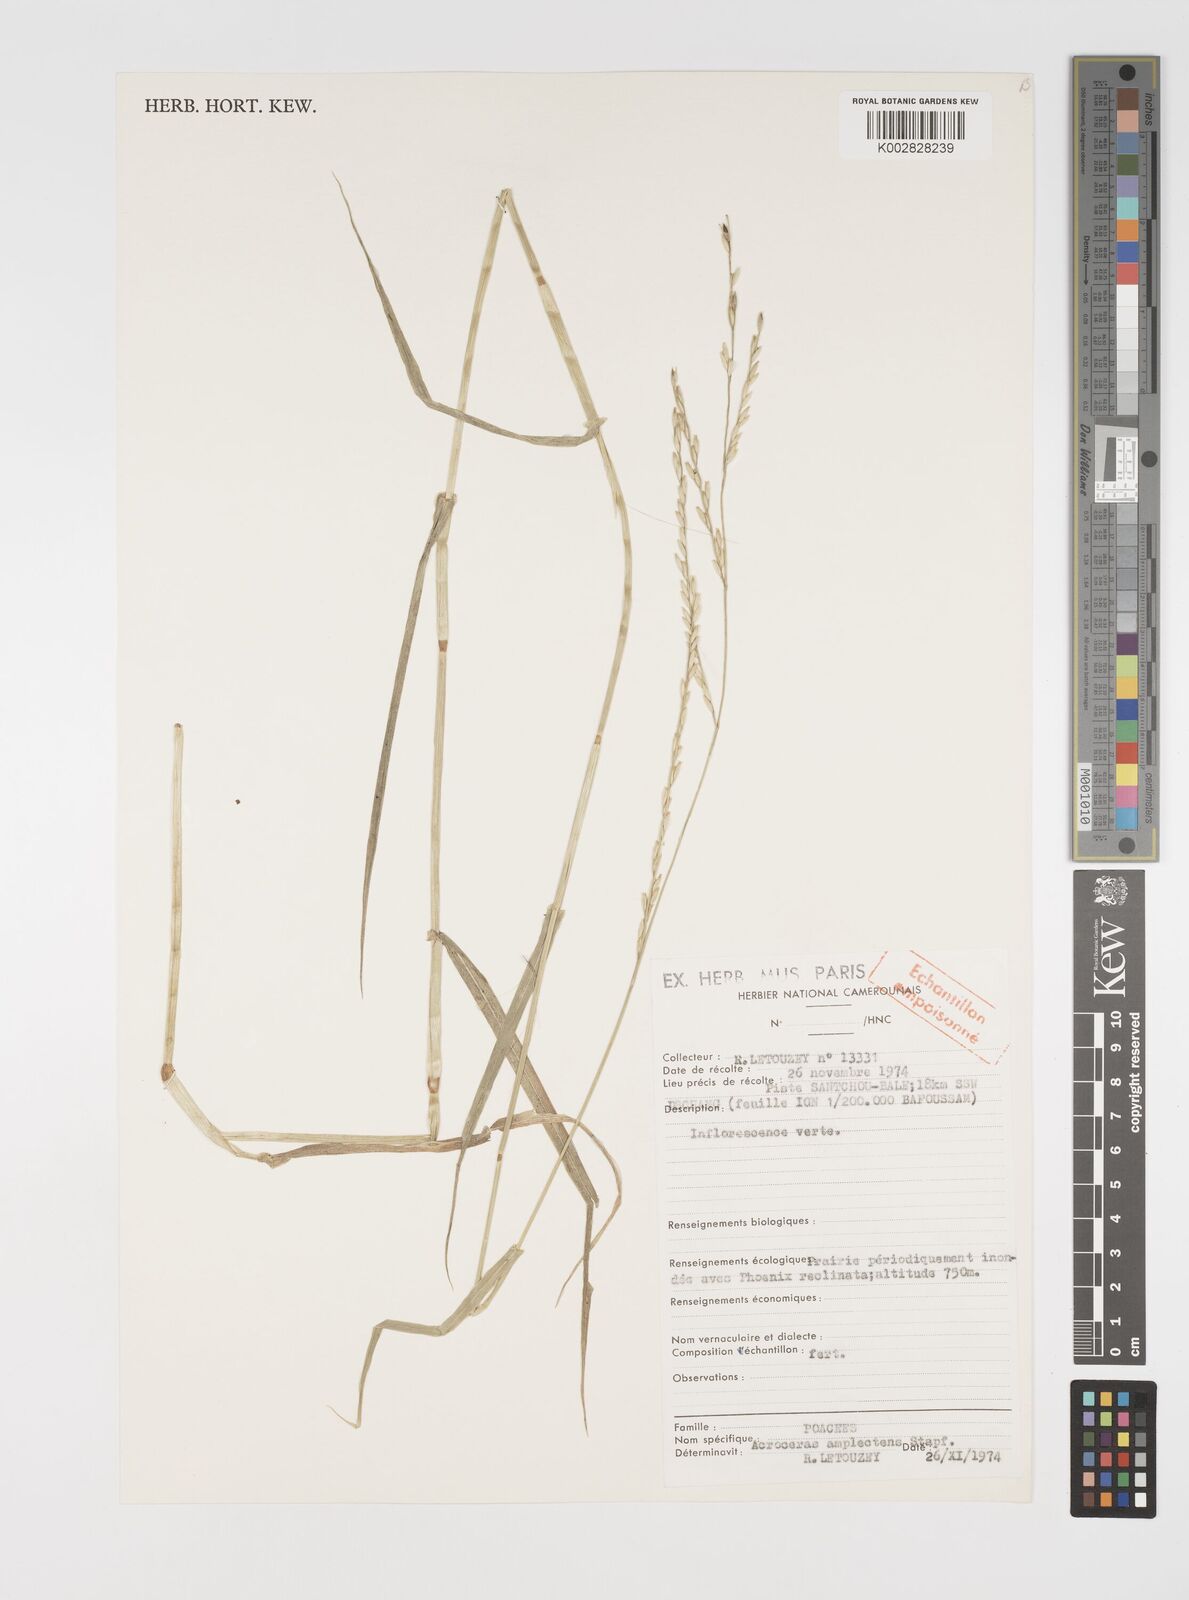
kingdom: Plantae
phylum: Tracheophyta
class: Liliopsida
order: Poales
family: Poaceae
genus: Acroceras
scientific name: Acroceras amplectens
